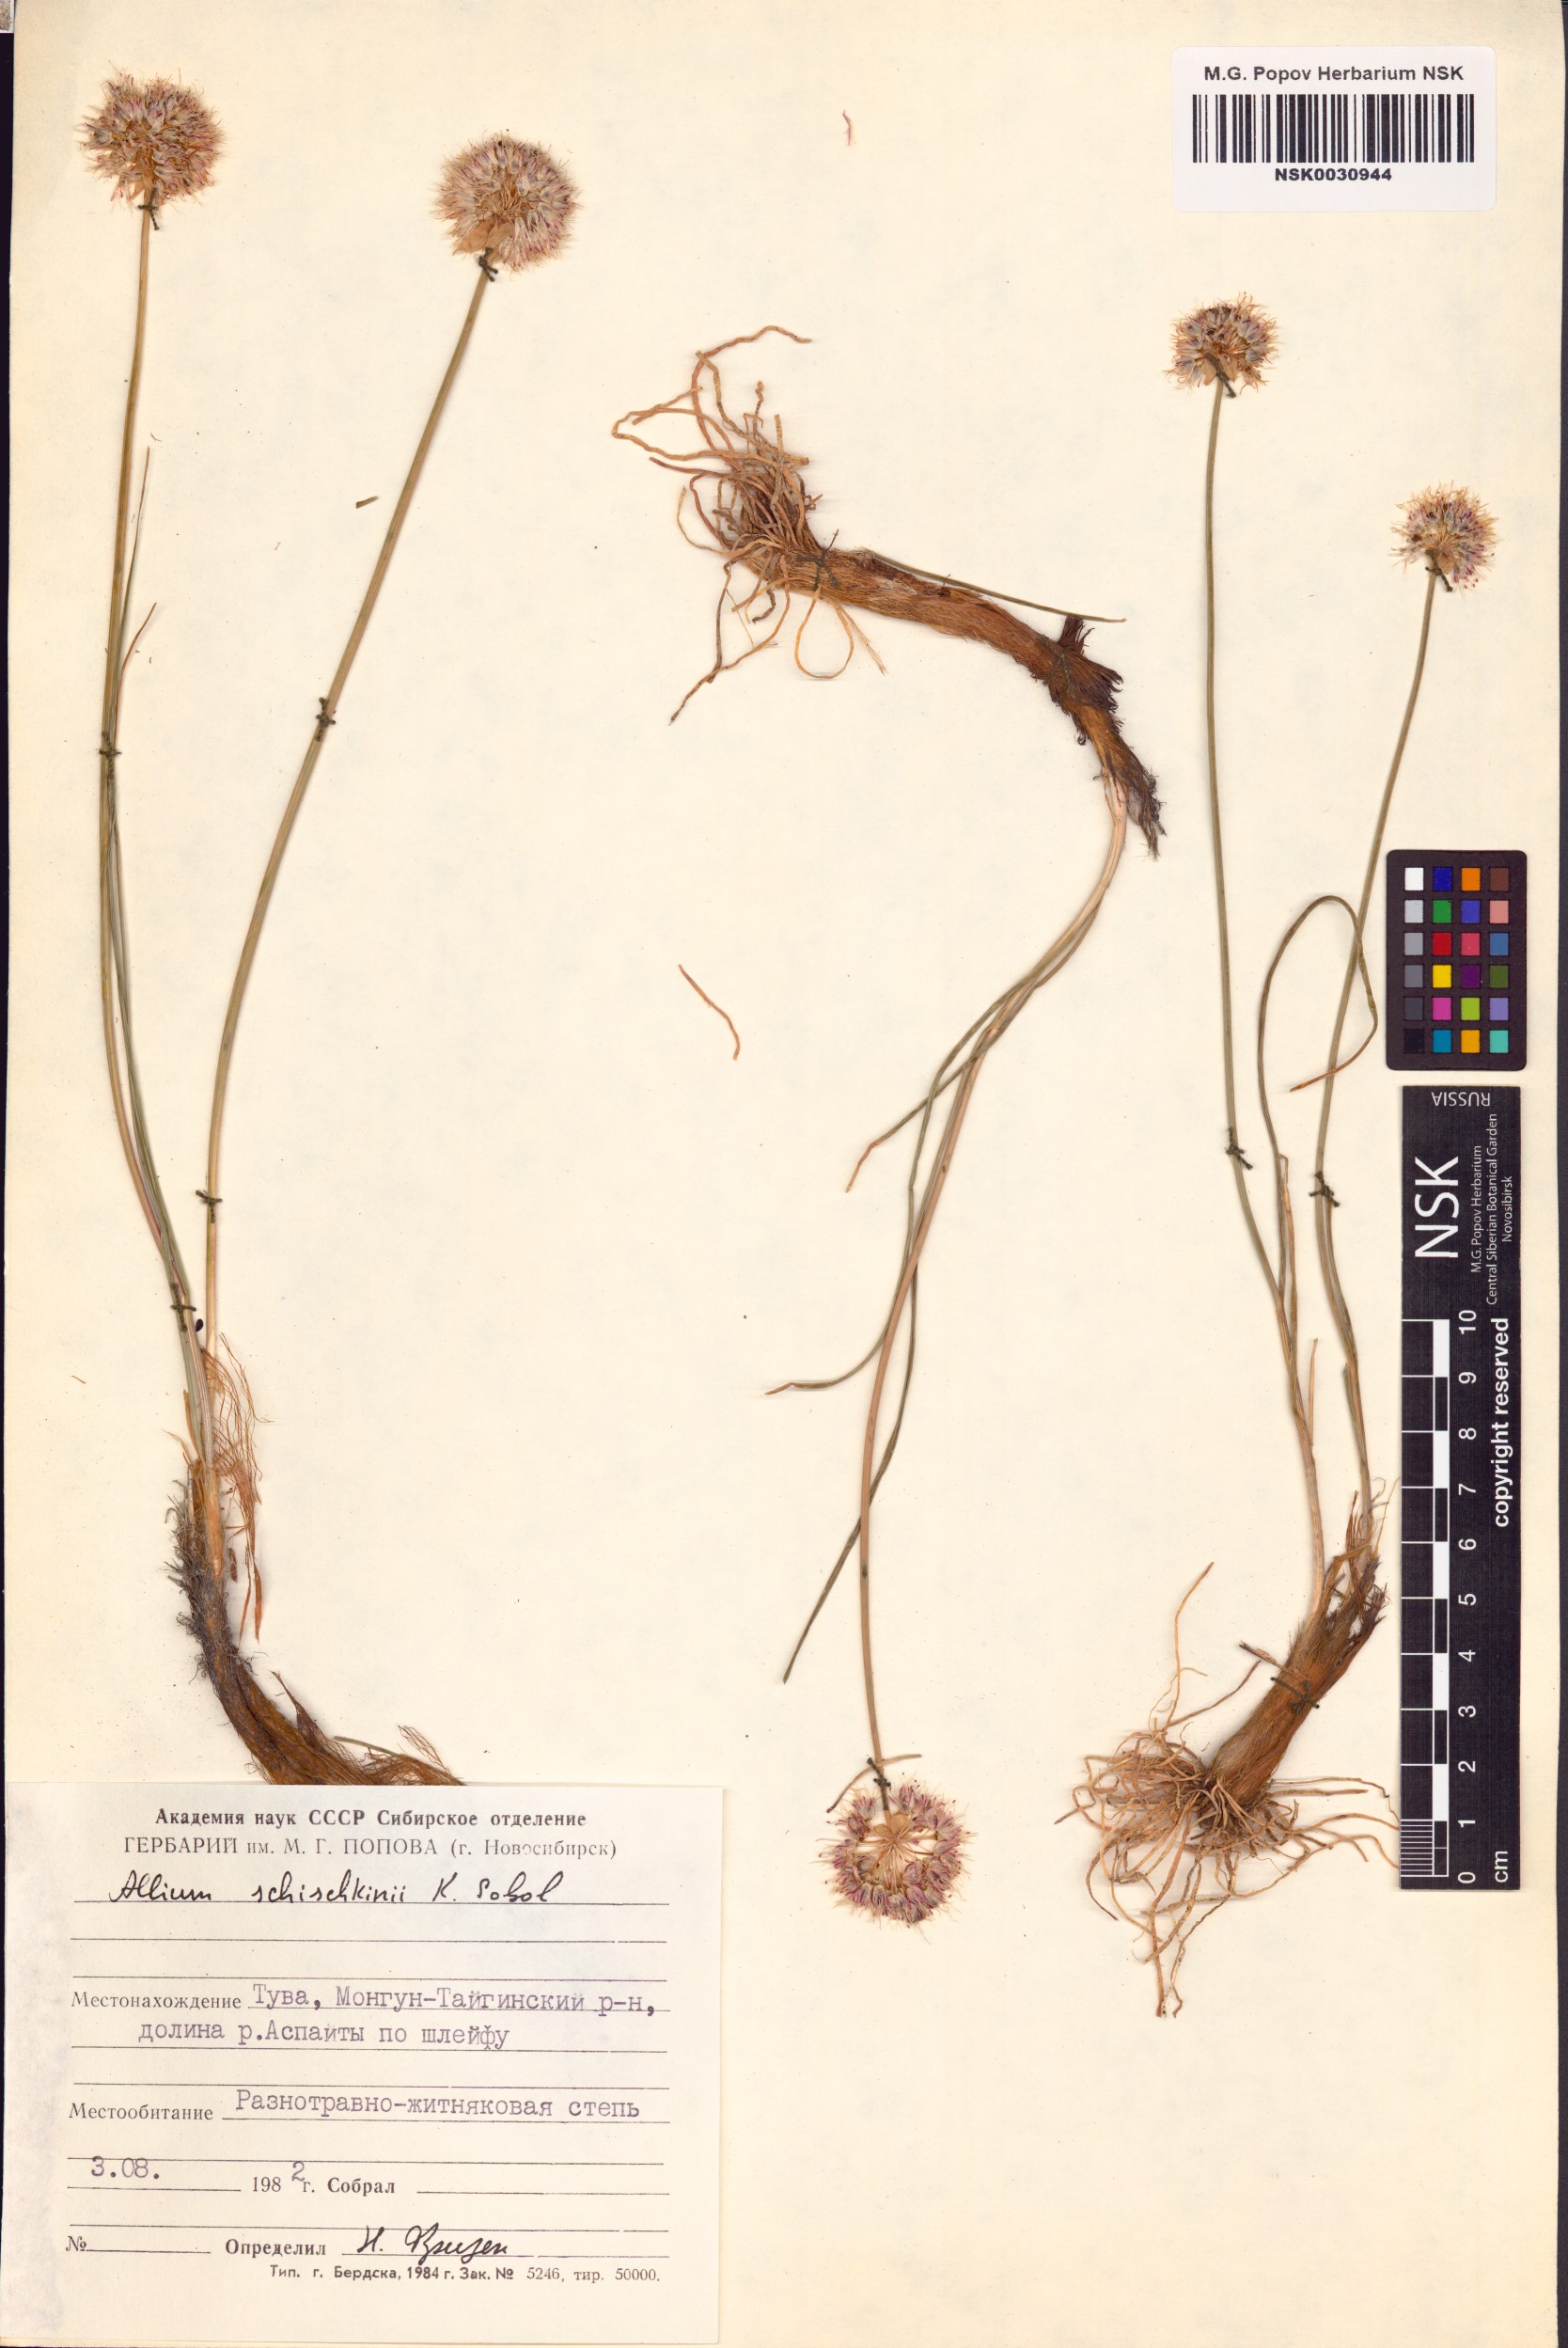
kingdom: Plantae
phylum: Tracheophyta
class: Liliopsida
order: Asparagales
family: Amaryllidaceae
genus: Allium
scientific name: Allium schischkinii
